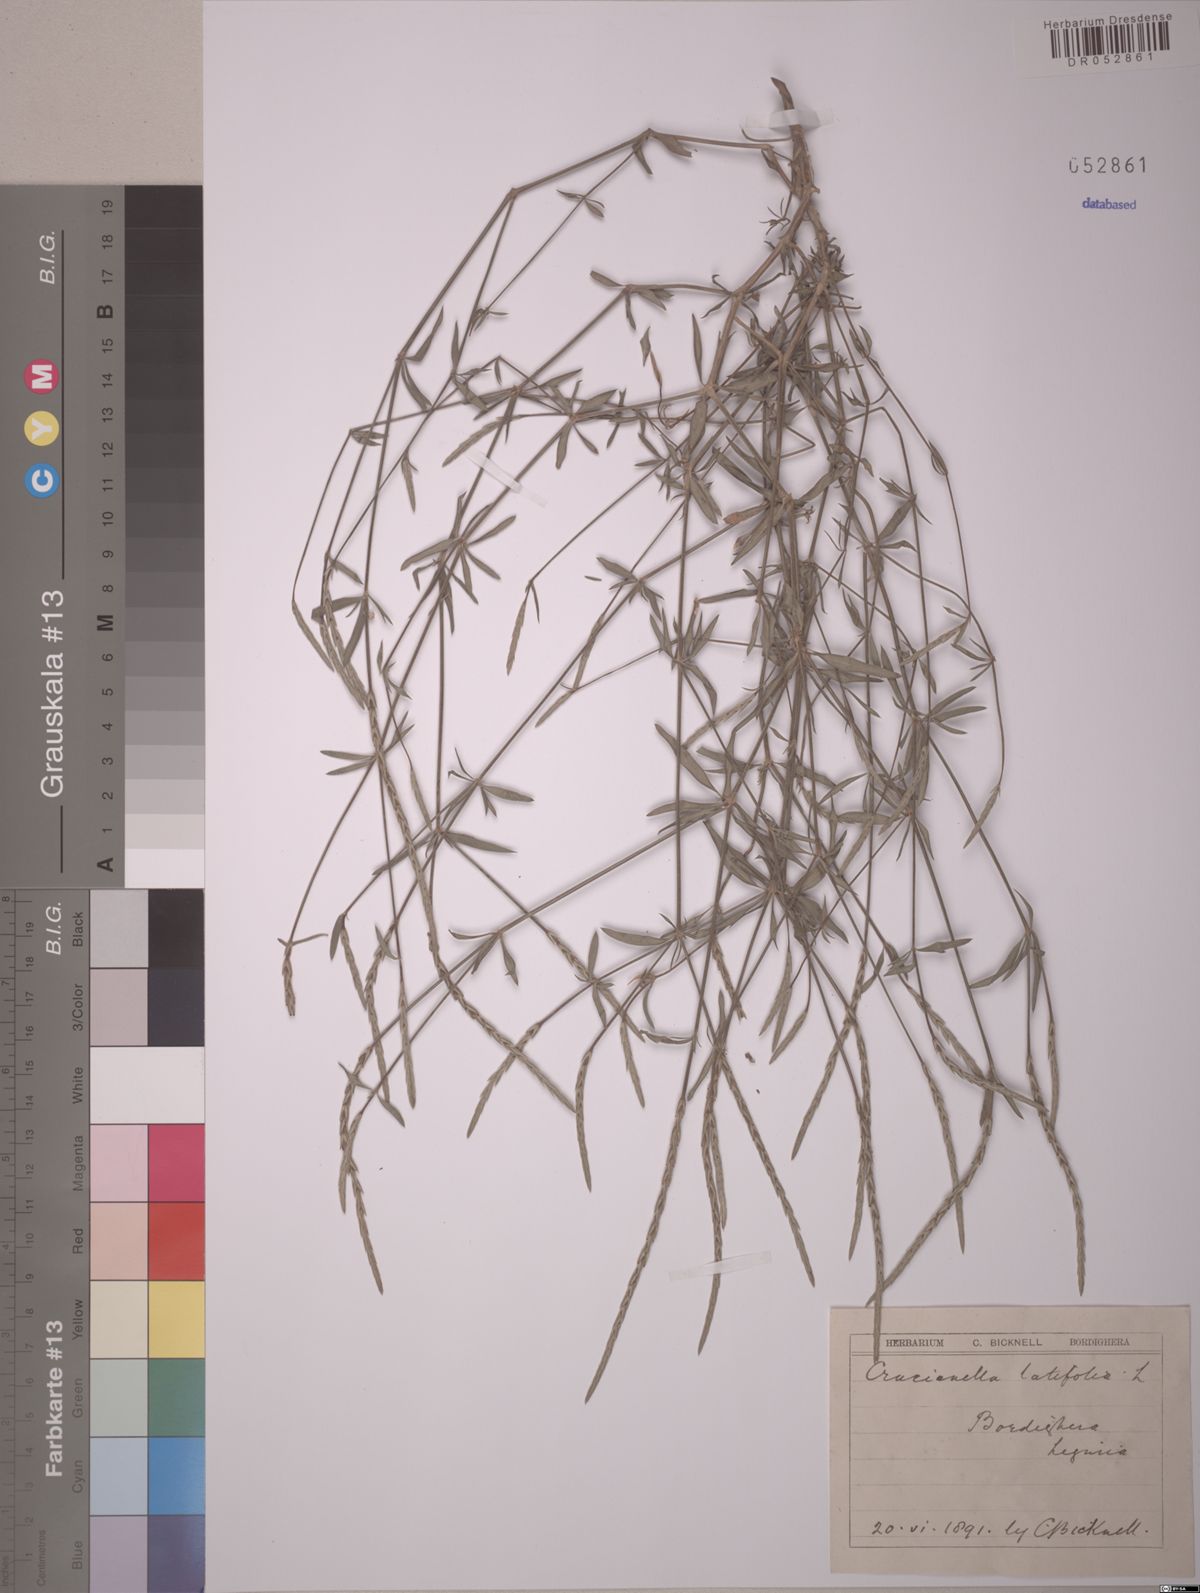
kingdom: Plantae
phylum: Tracheophyta
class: Magnoliopsida
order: Gentianales
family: Rubiaceae
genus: Crucianella
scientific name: Crucianella latifolia
